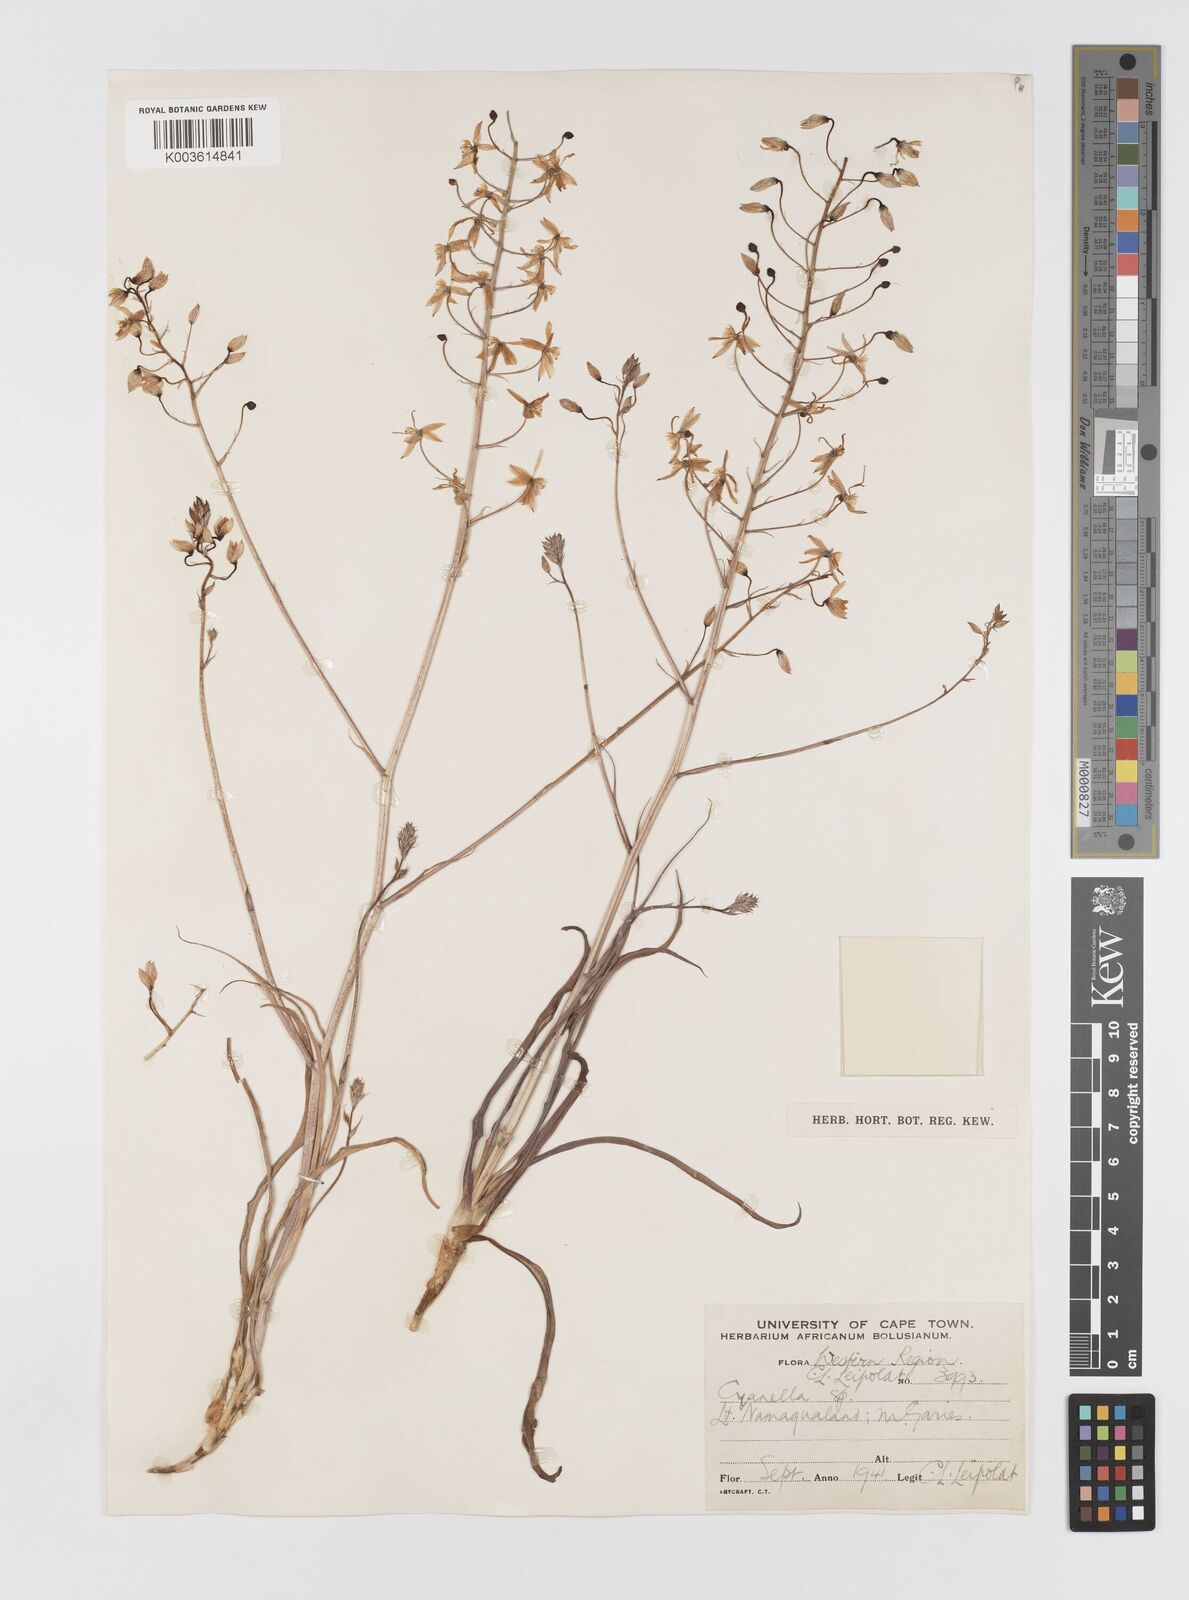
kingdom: Plantae
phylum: Tracheophyta
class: Liliopsida
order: Asparagales
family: Tecophilaeaceae
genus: Cyanella
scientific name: Cyanella
